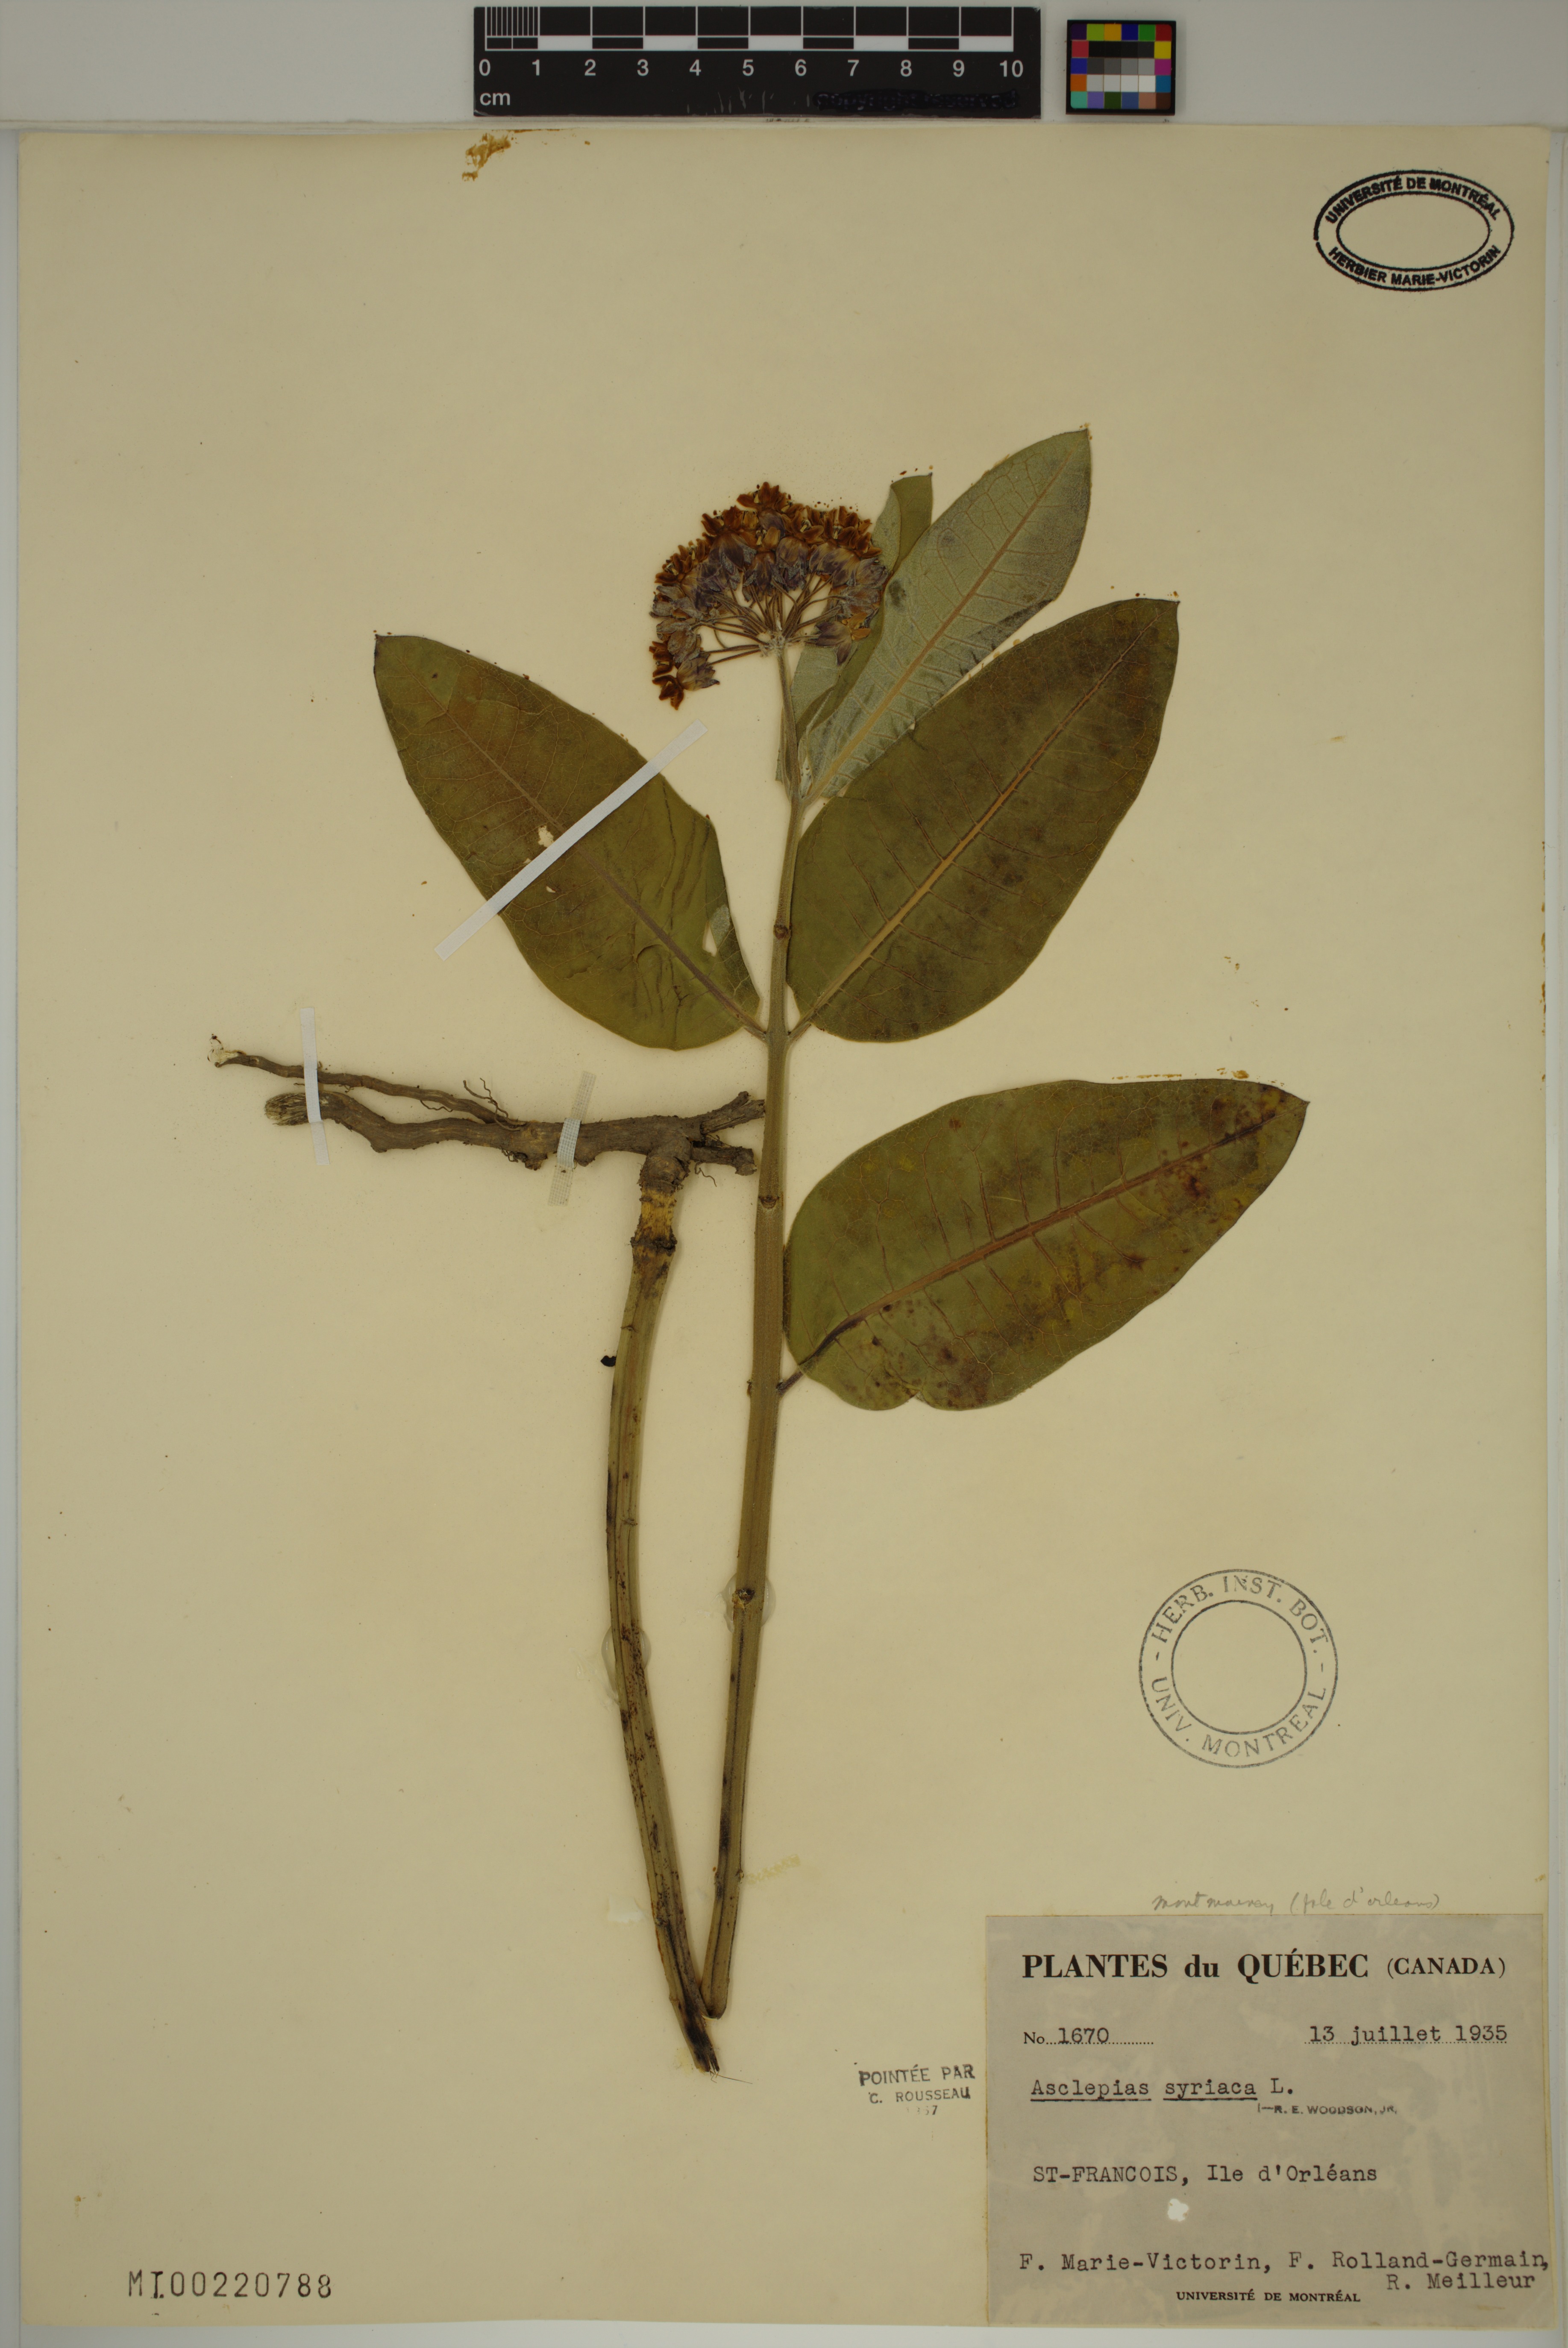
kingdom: Plantae
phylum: Tracheophyta
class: Magnoliopsida
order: Gentianales
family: Apocynaceae
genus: Asclepias
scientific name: Asclepias syriaca
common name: Common milkweed
